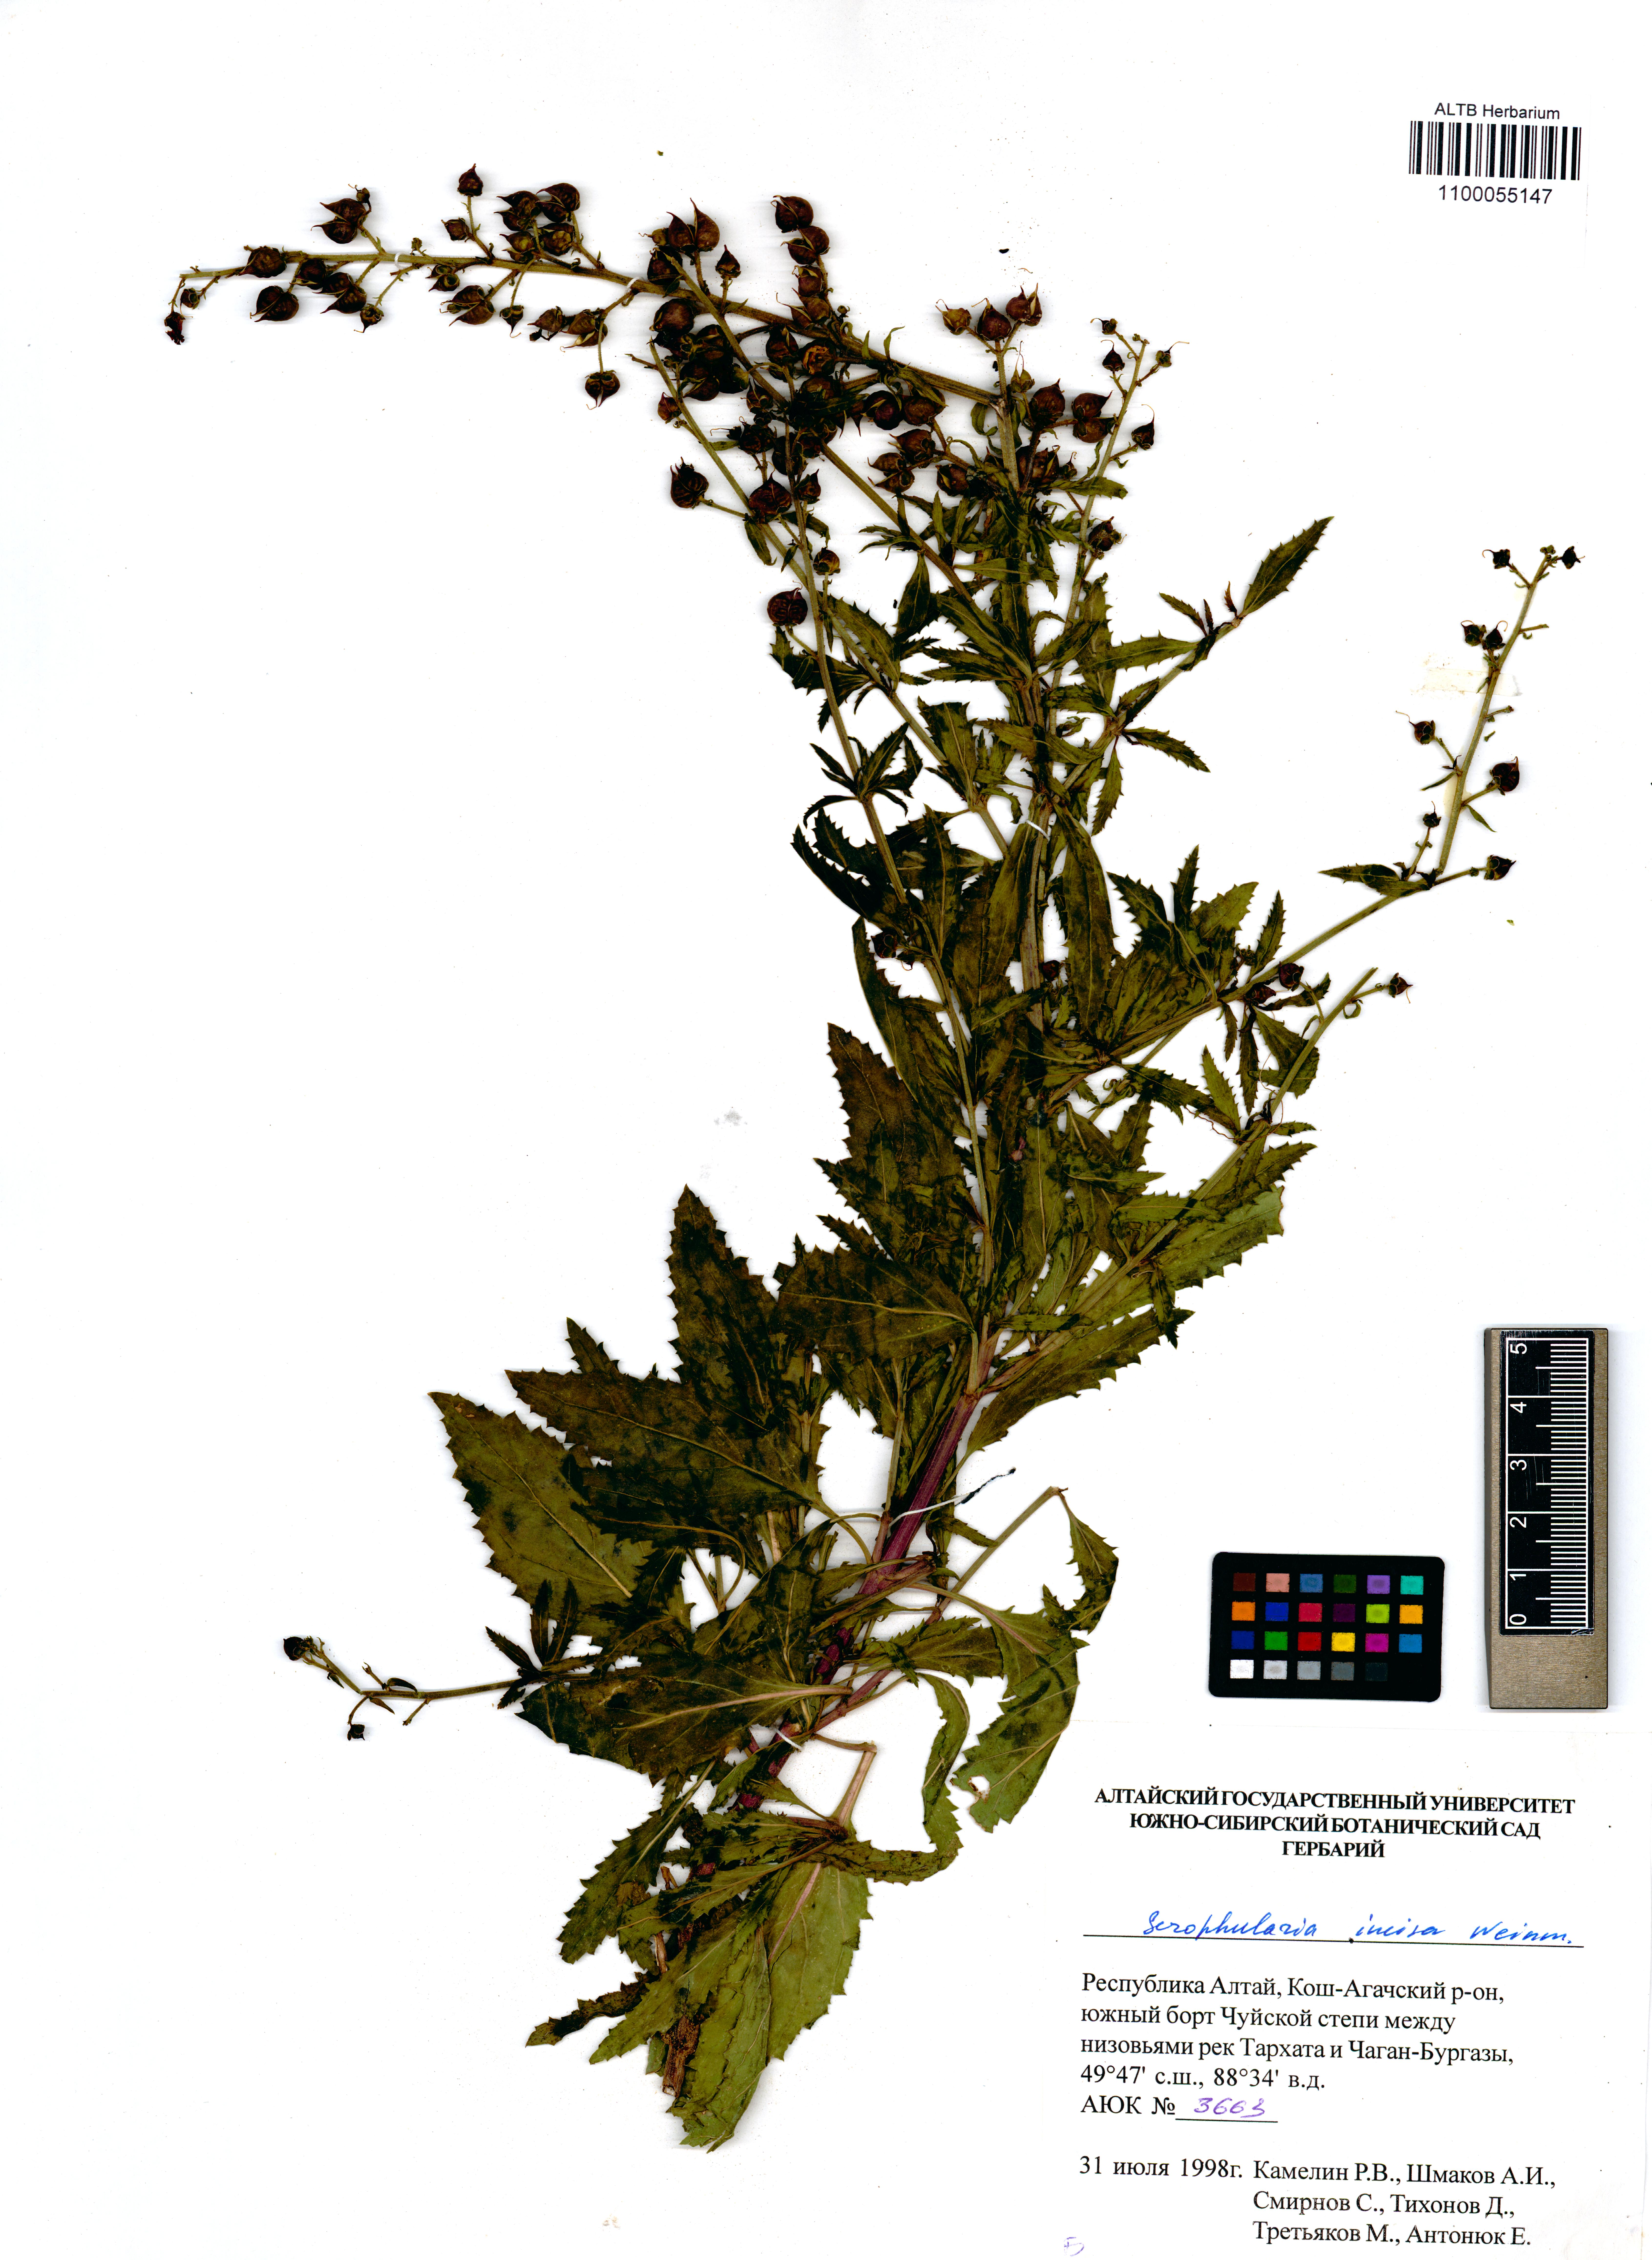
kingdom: Plantae
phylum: Tracheophyta
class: Magnoliopsida
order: Lamiales
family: Scrophulariaceae
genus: Scrophularia
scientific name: Scrophularia incisa
